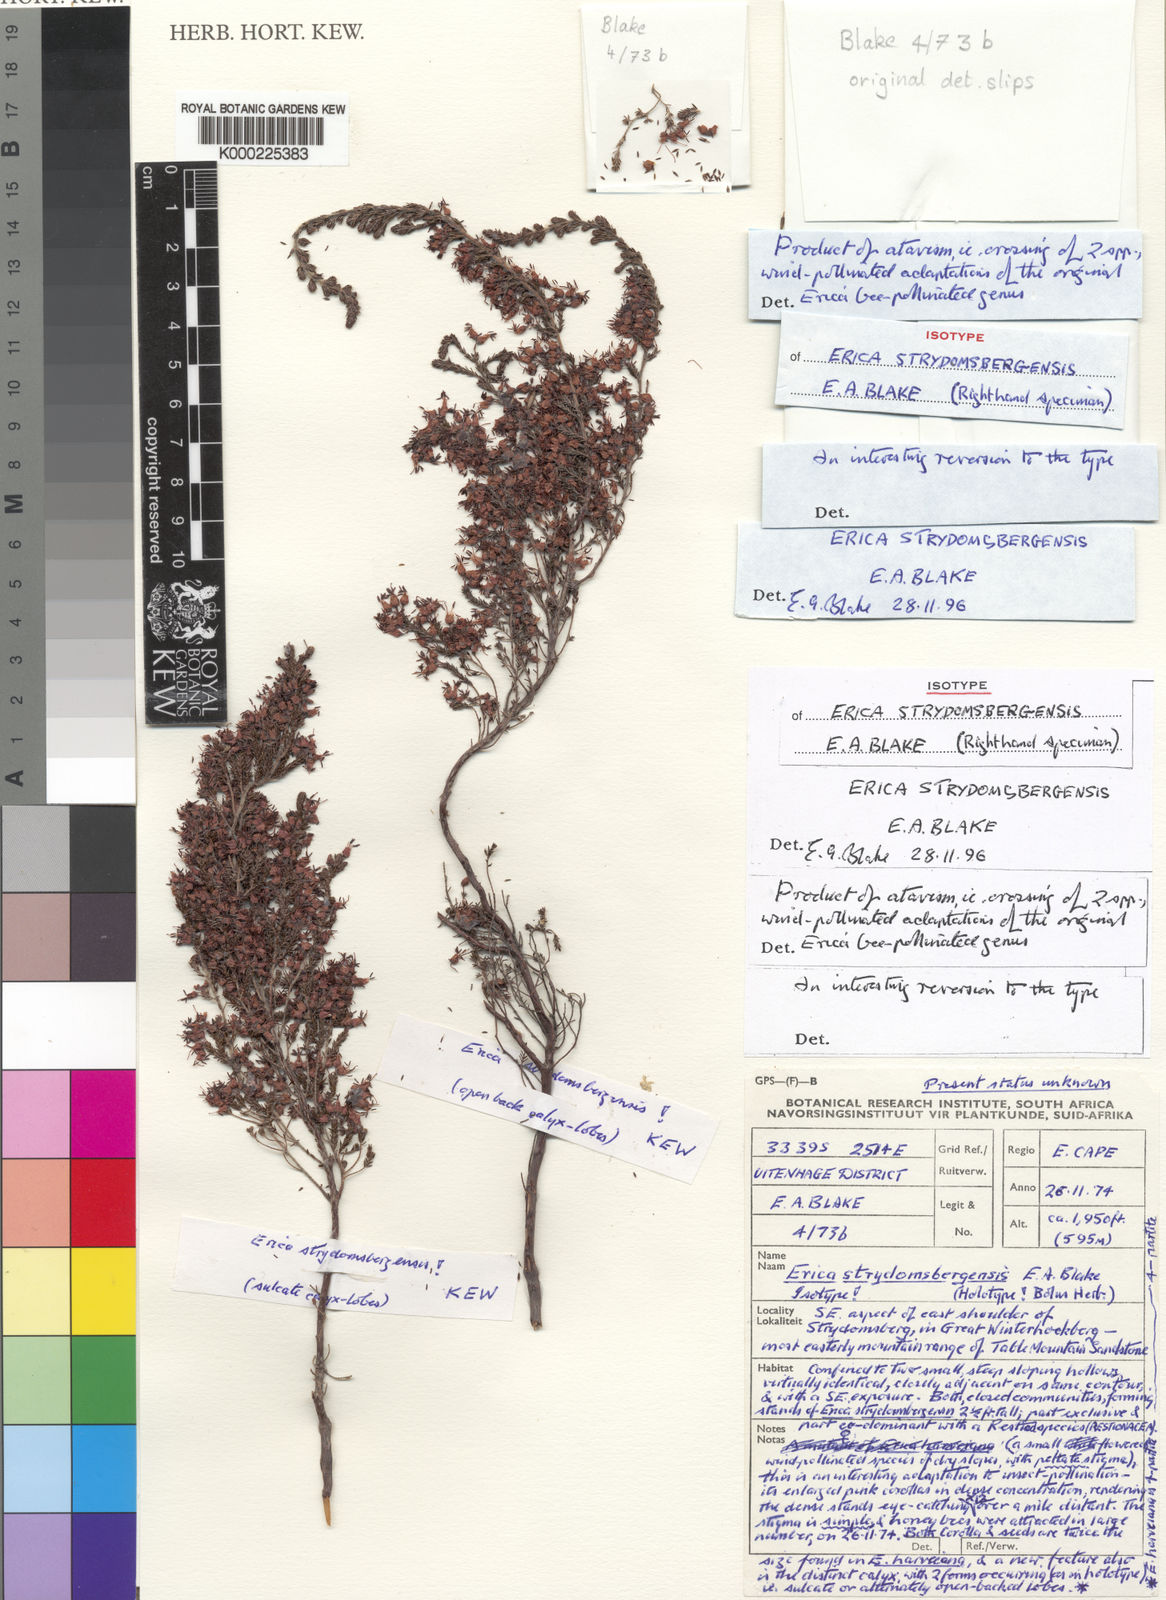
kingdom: Plantae
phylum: Tracheophyta
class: Magnoliopsida
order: Ericales
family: Ericaceae
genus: Erica
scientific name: Erica
